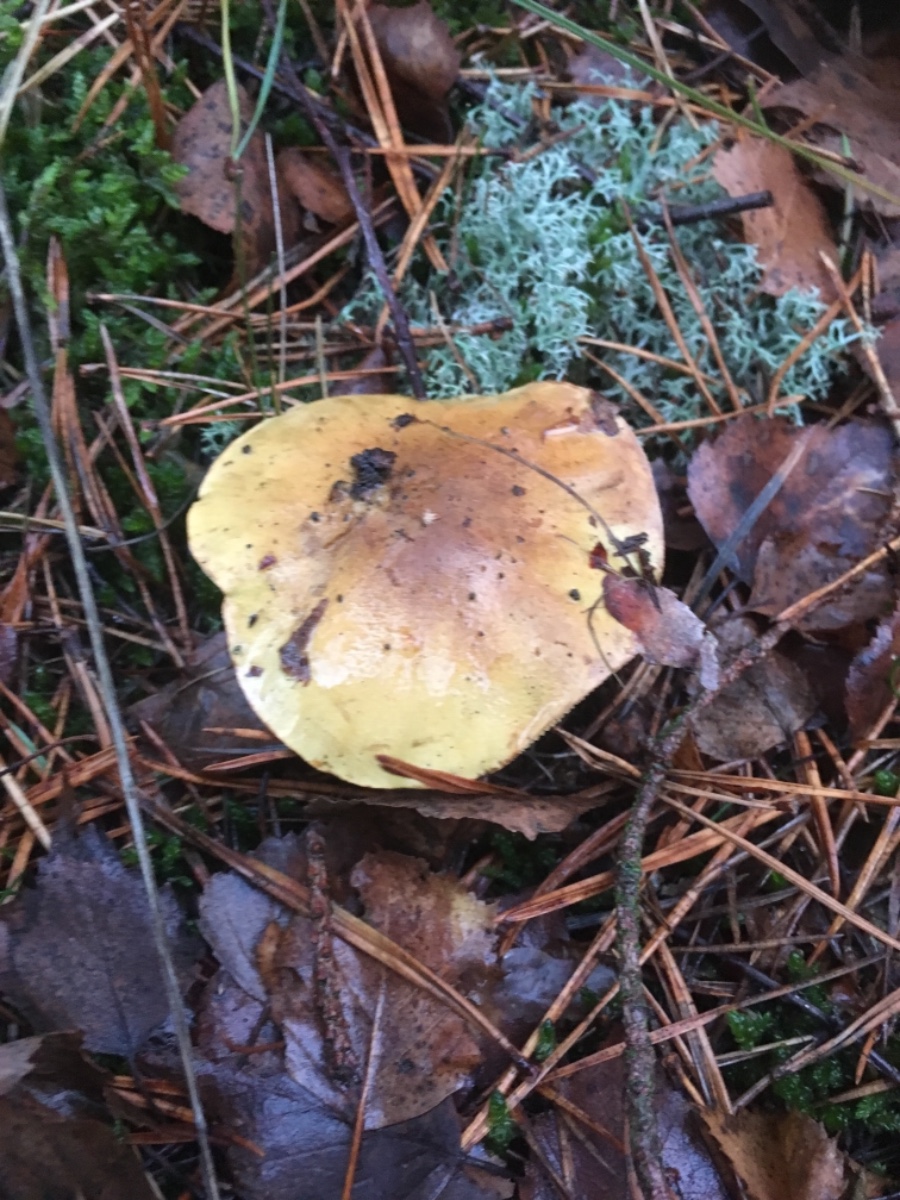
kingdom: Fungi
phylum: Basidiomycota
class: Agaricomycetes
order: Agaricales
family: Tricholomataceae
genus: Tricholoma
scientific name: Tricholoma equestre
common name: ægte ridderhat
